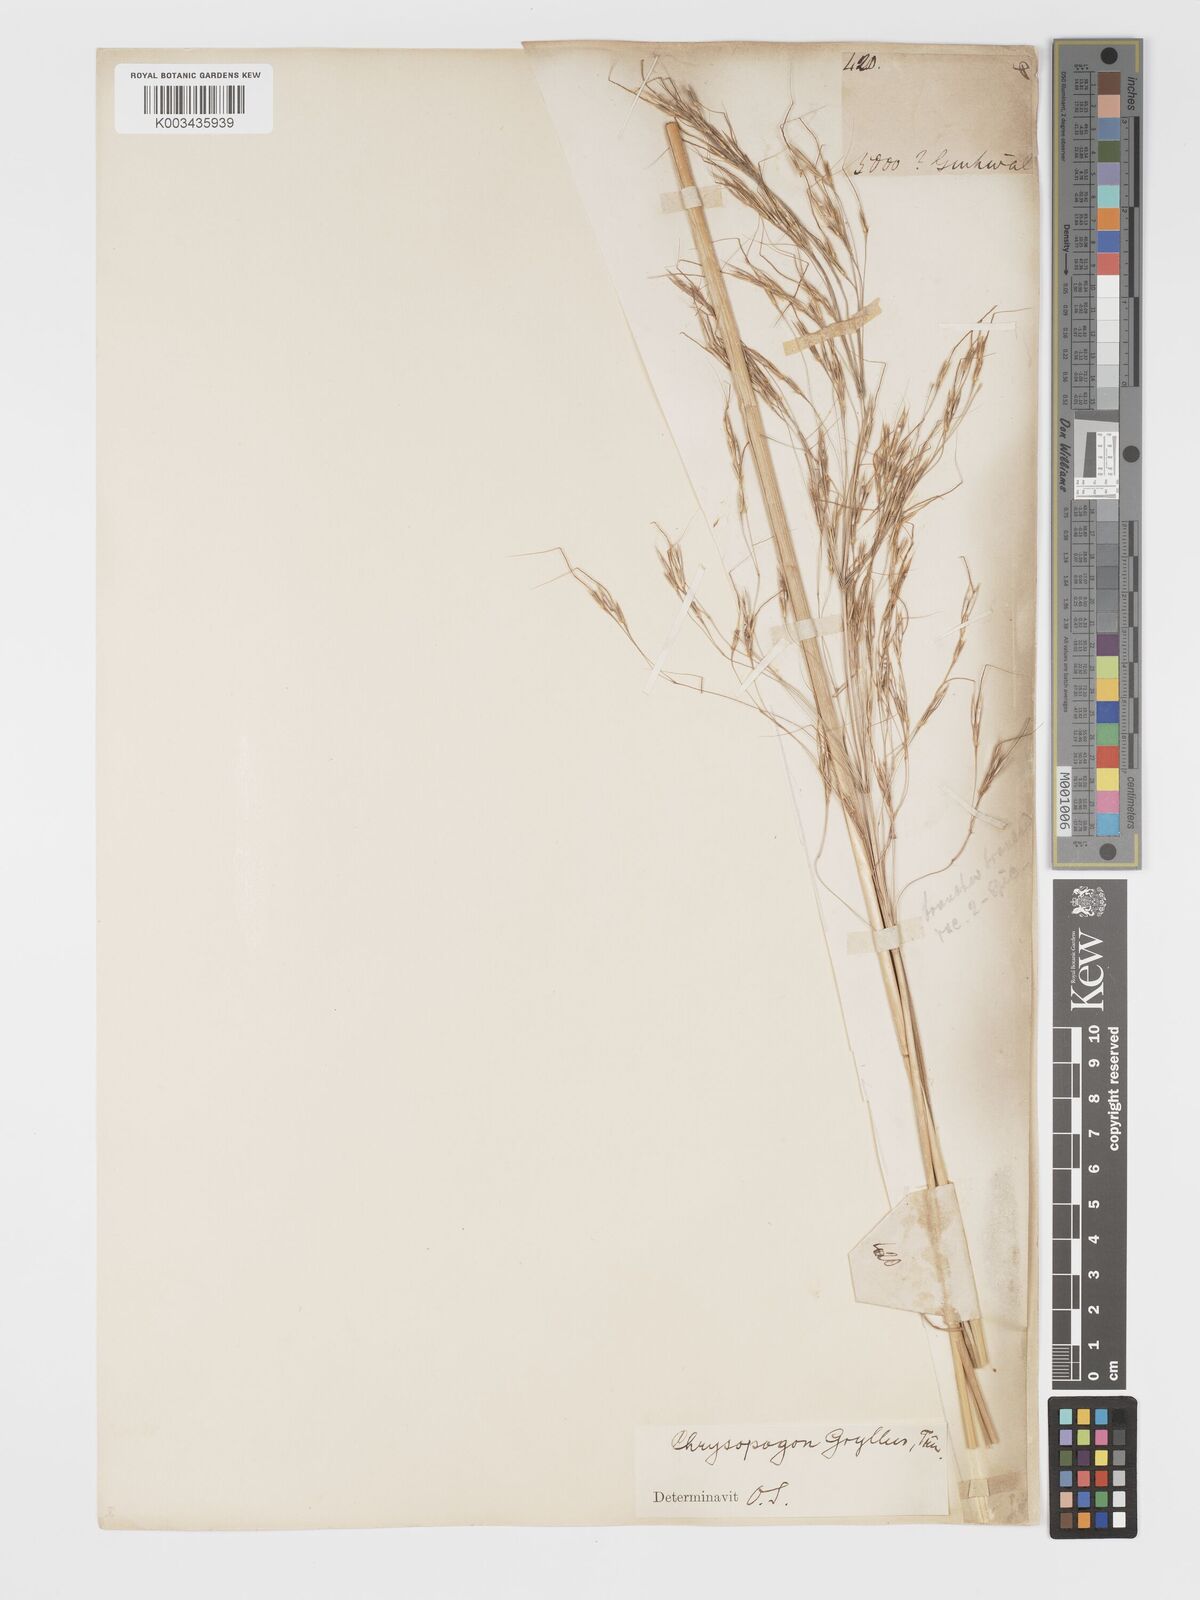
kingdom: Plantae
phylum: Tracheophyta
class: Liliopsida
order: Poales
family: Poaceae
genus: Chrysopogon
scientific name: Chrysopogon gryllus
